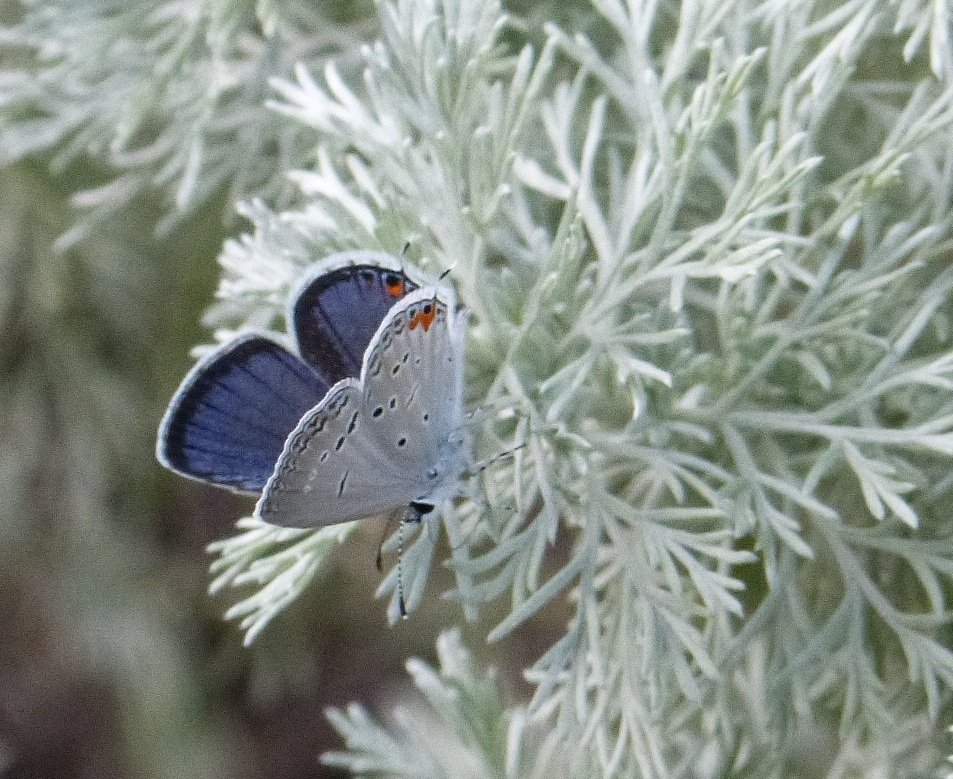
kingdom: Animalia
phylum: Arthropoda
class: Insecta
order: Lepidoptera
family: Lycaenidae
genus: Elkalyce
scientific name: Elkalyce comyntas
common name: Eastern Tailed-Blue
